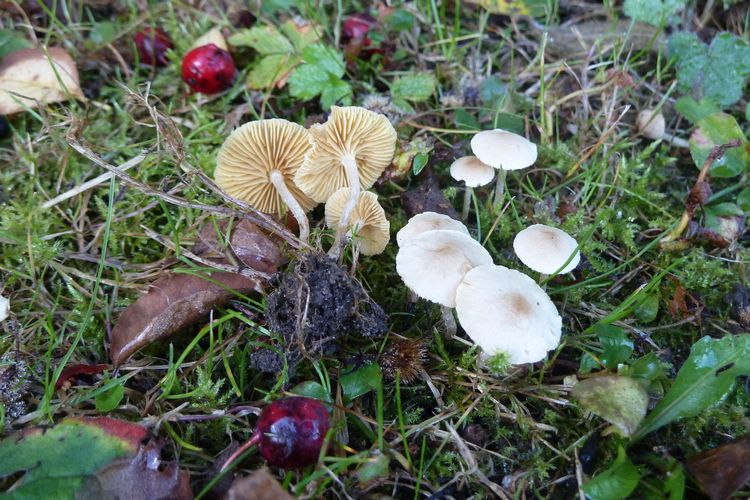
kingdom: Fungi
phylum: Basidiomycota
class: Agaricomycetes
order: Agaricales
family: Tubariaceae
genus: Tubaria
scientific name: Tubaria dispersa
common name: tjørne-fnughat
